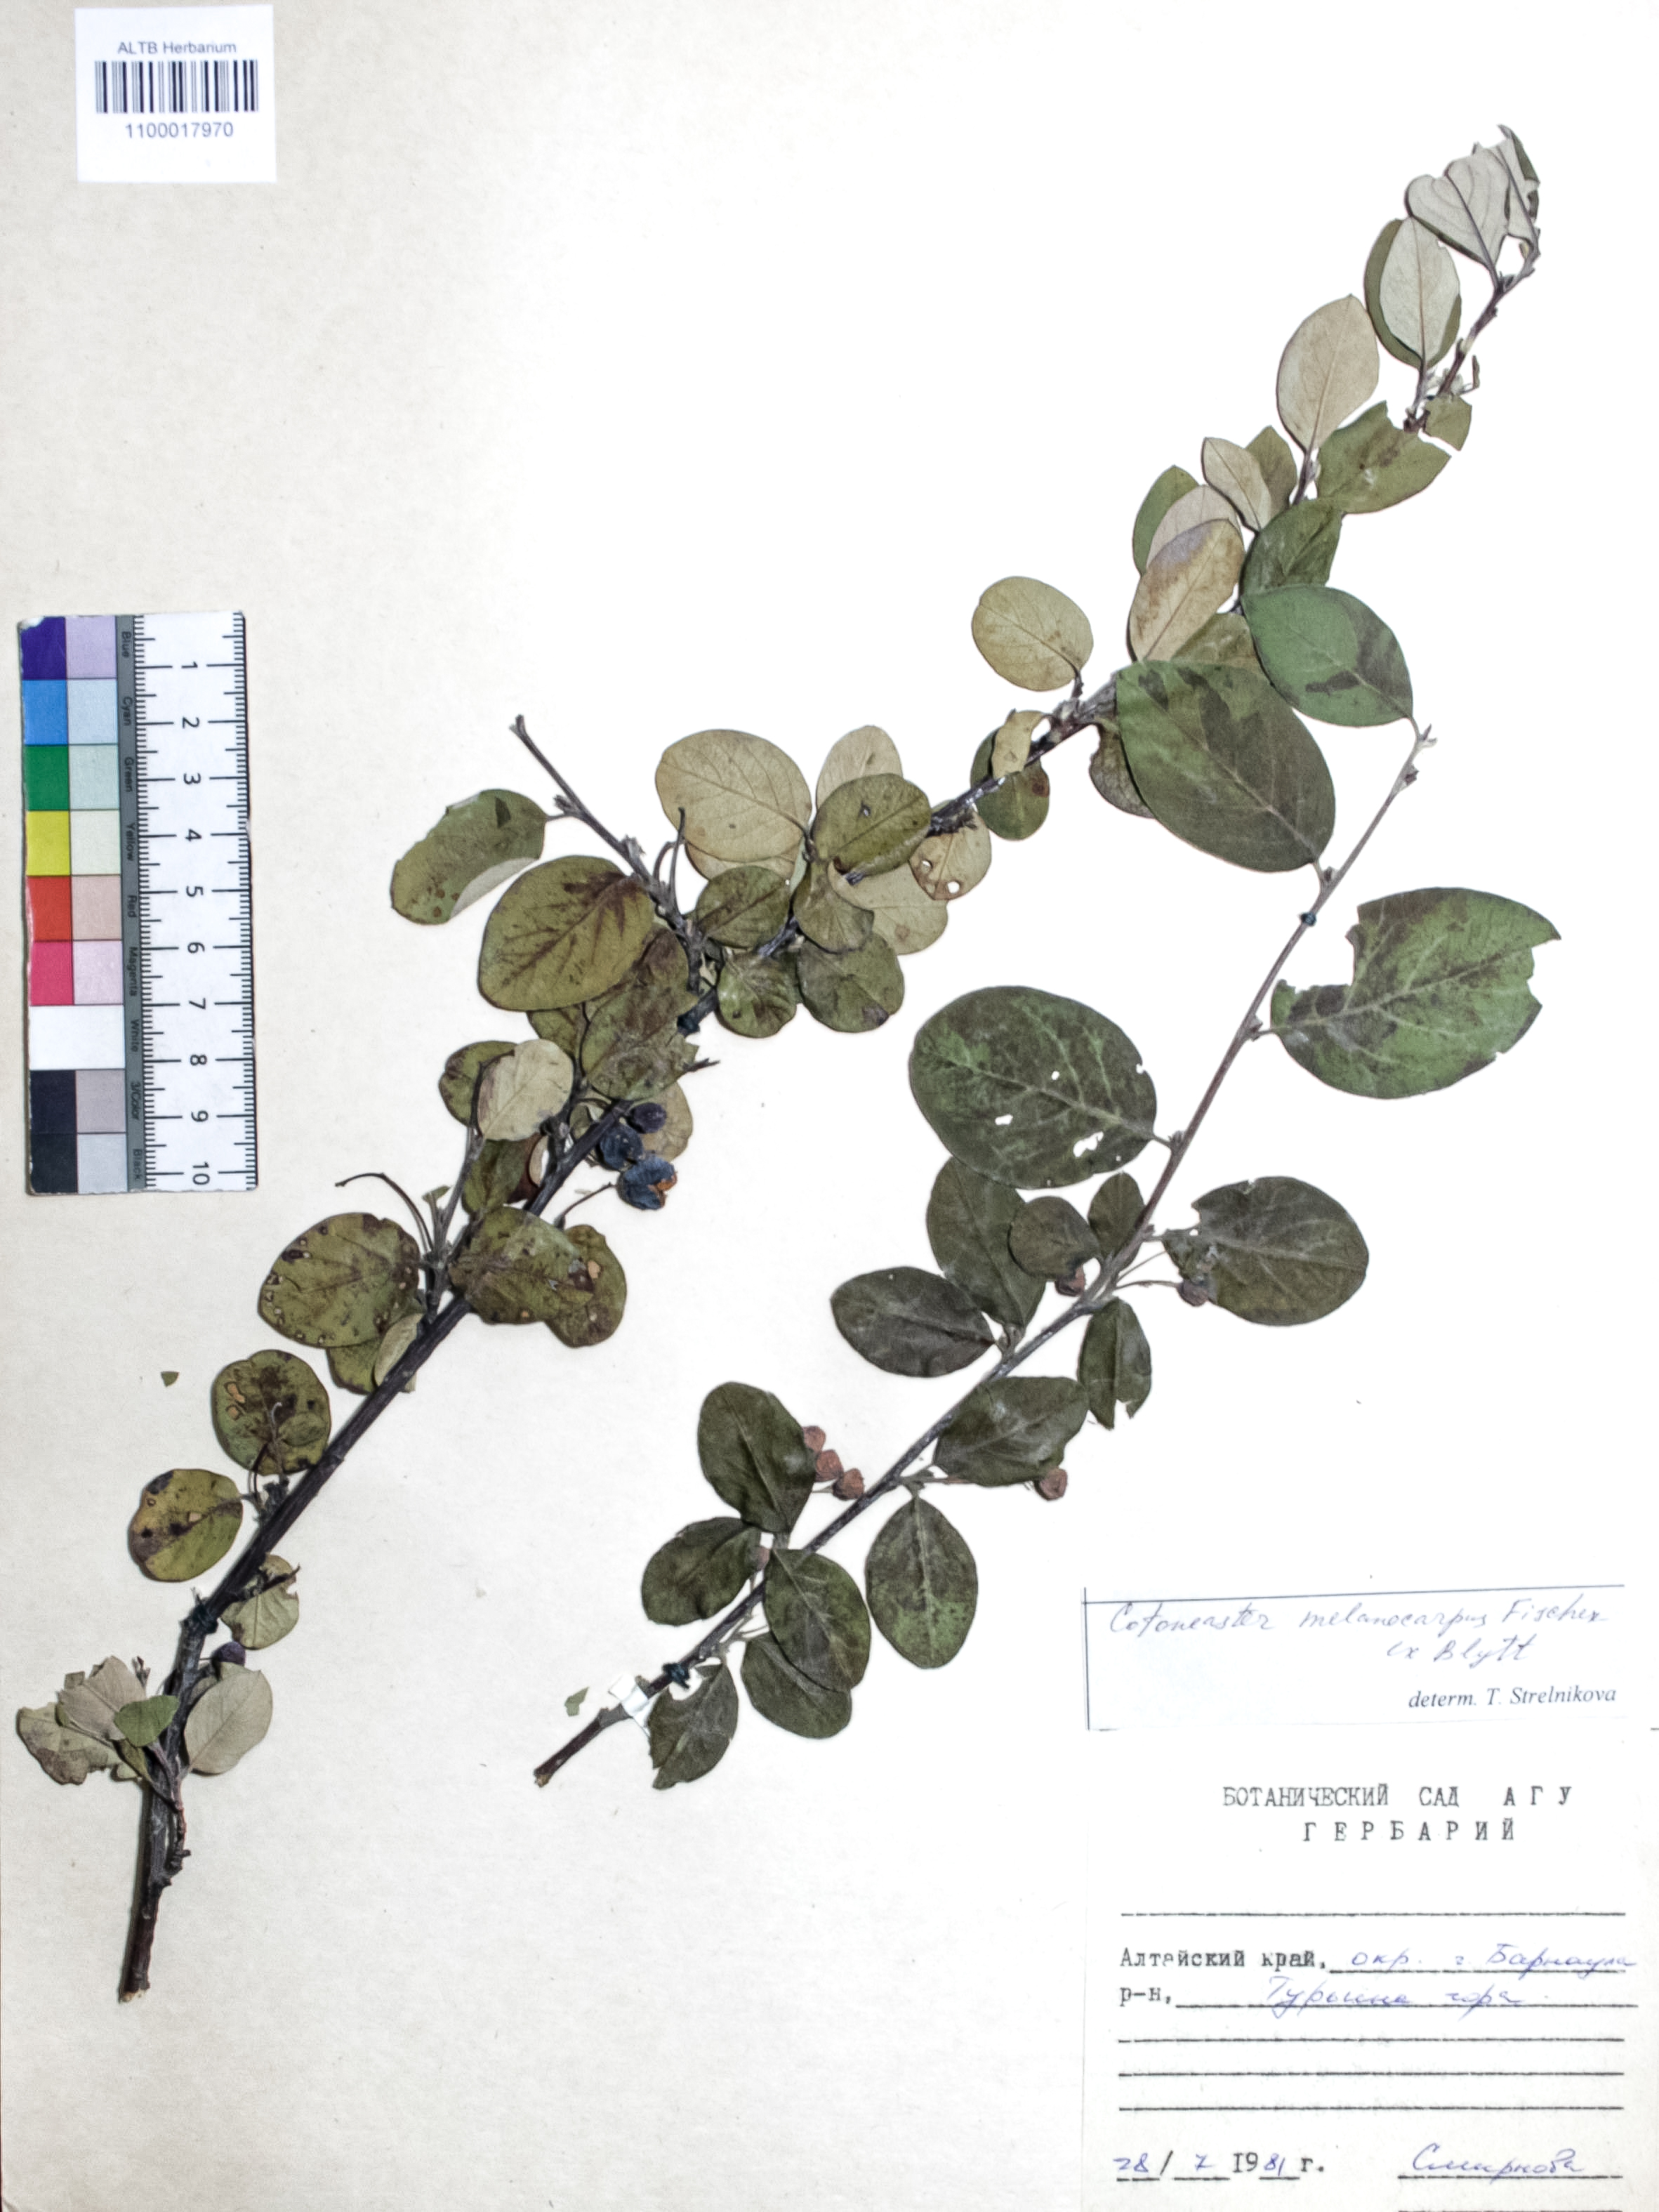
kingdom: Plantae
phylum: Tracheophyta
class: Magnoliopsida
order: Rosales
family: Rosaceae
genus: Cotoneaster
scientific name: Cotoneaster niger
